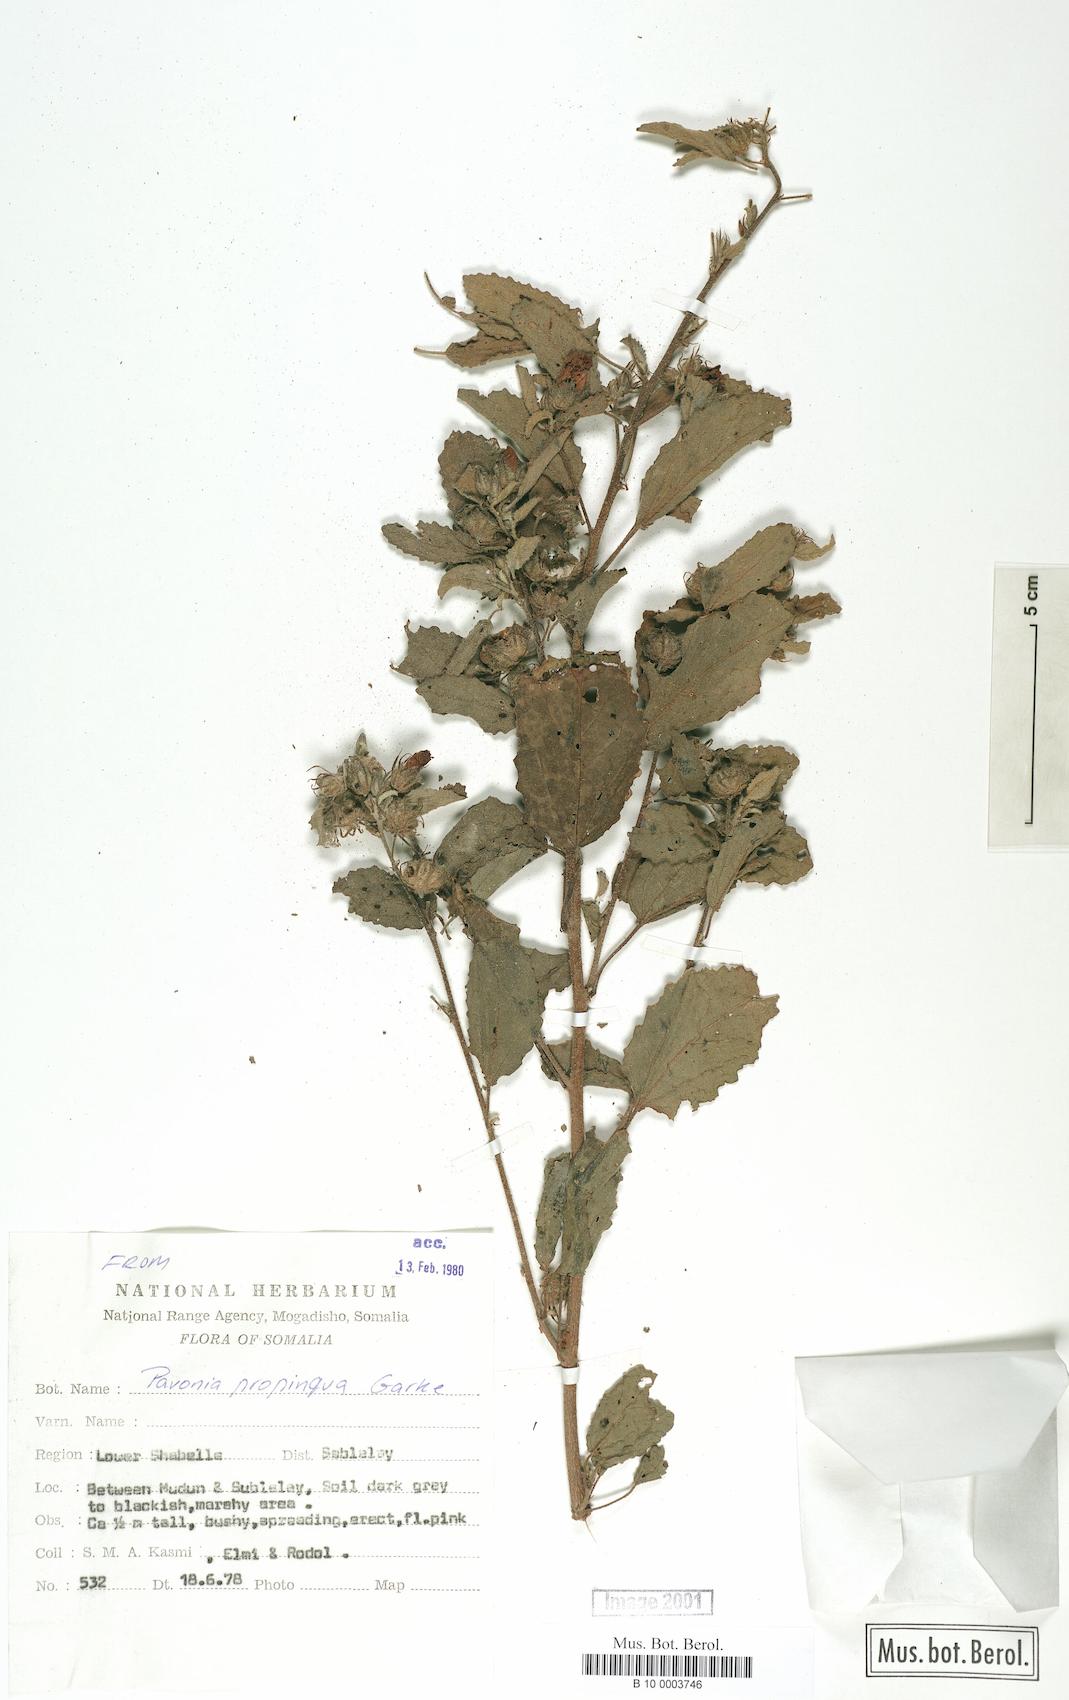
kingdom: Plantae
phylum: Tracheophyta
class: Magnoliopsida
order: Malvales
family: Malvaceae
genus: Pavonia
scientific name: Pavonia propinqua
